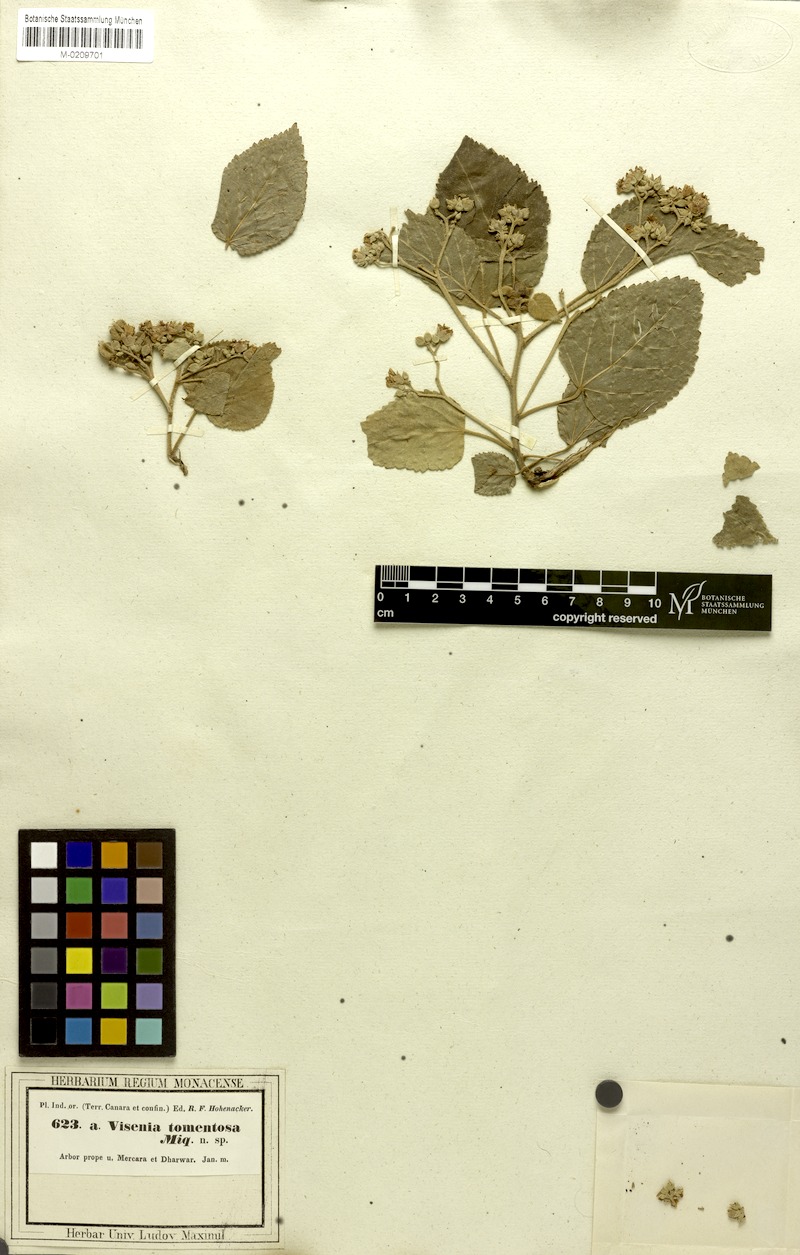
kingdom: Plantae
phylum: Tracheophyta
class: Magnoliopsida
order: Malvales
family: Malvaceae
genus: Melochia
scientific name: Melochia umbellata
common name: Gunpowder tree
